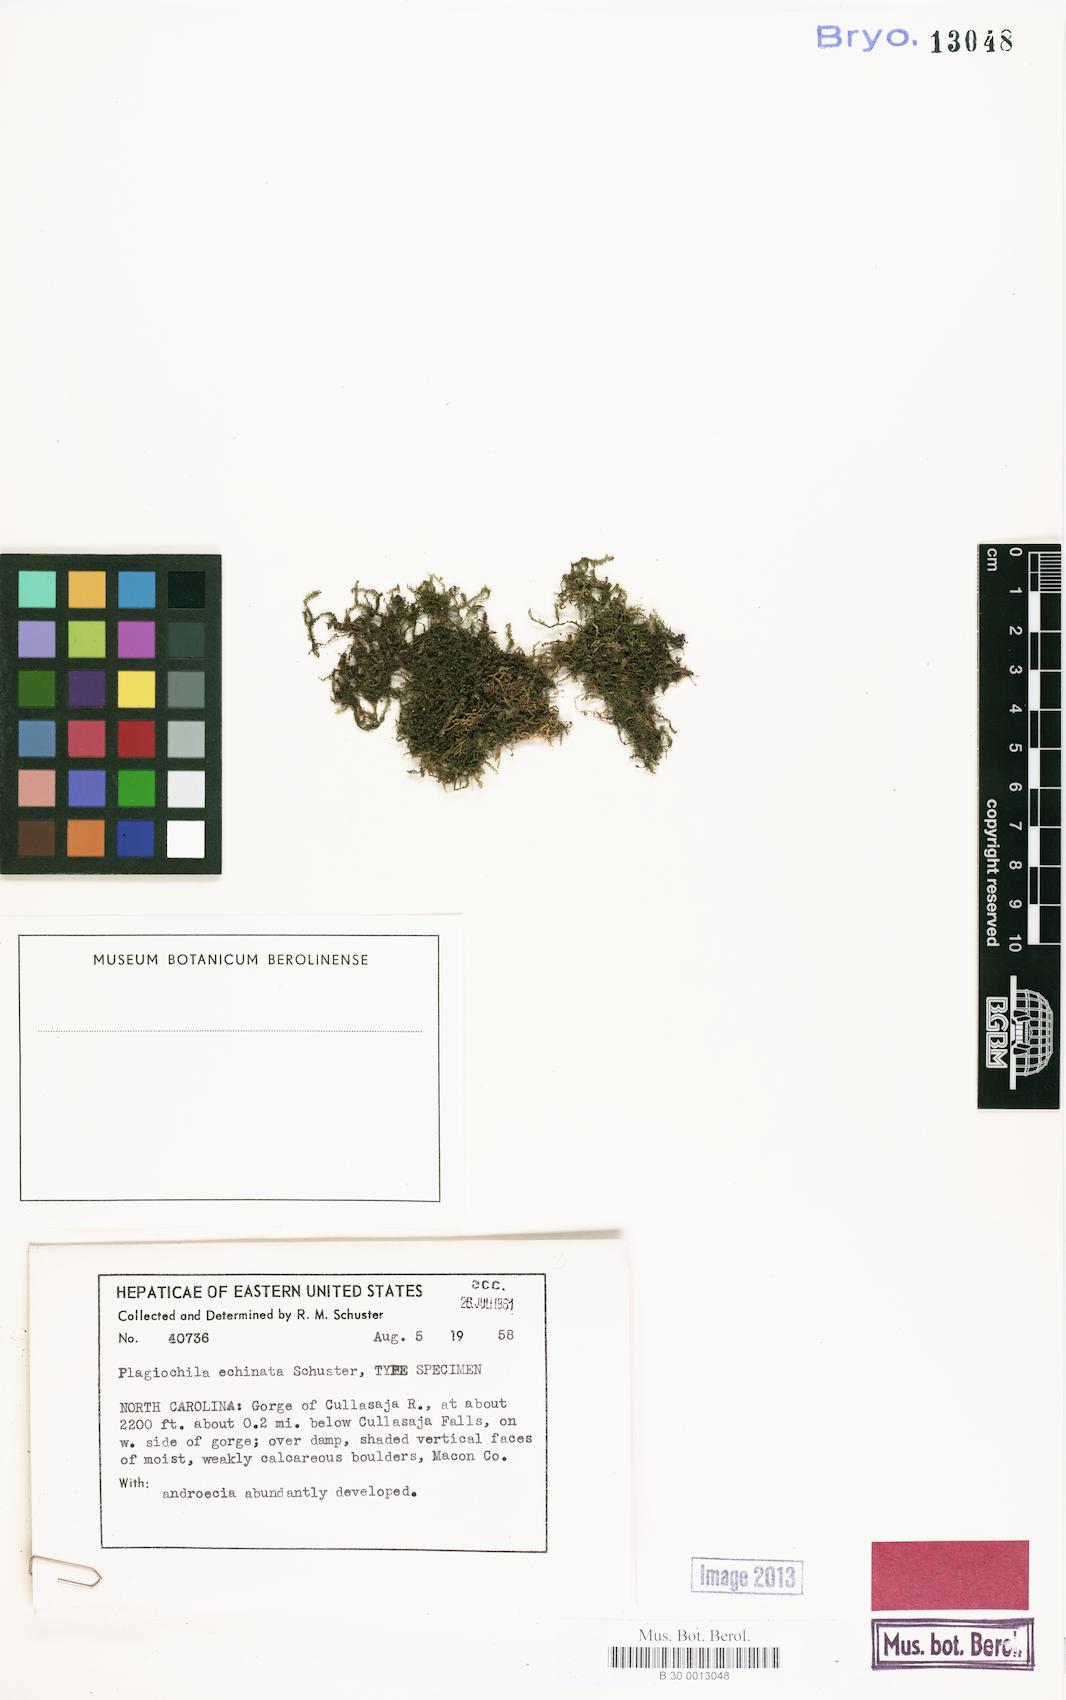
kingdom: Plantae
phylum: Marchantiophyta
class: Jungermanniopsida
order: Jungermanniales
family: Plagiochilaceae
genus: Plagiochila
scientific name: Plagiochila echinata
